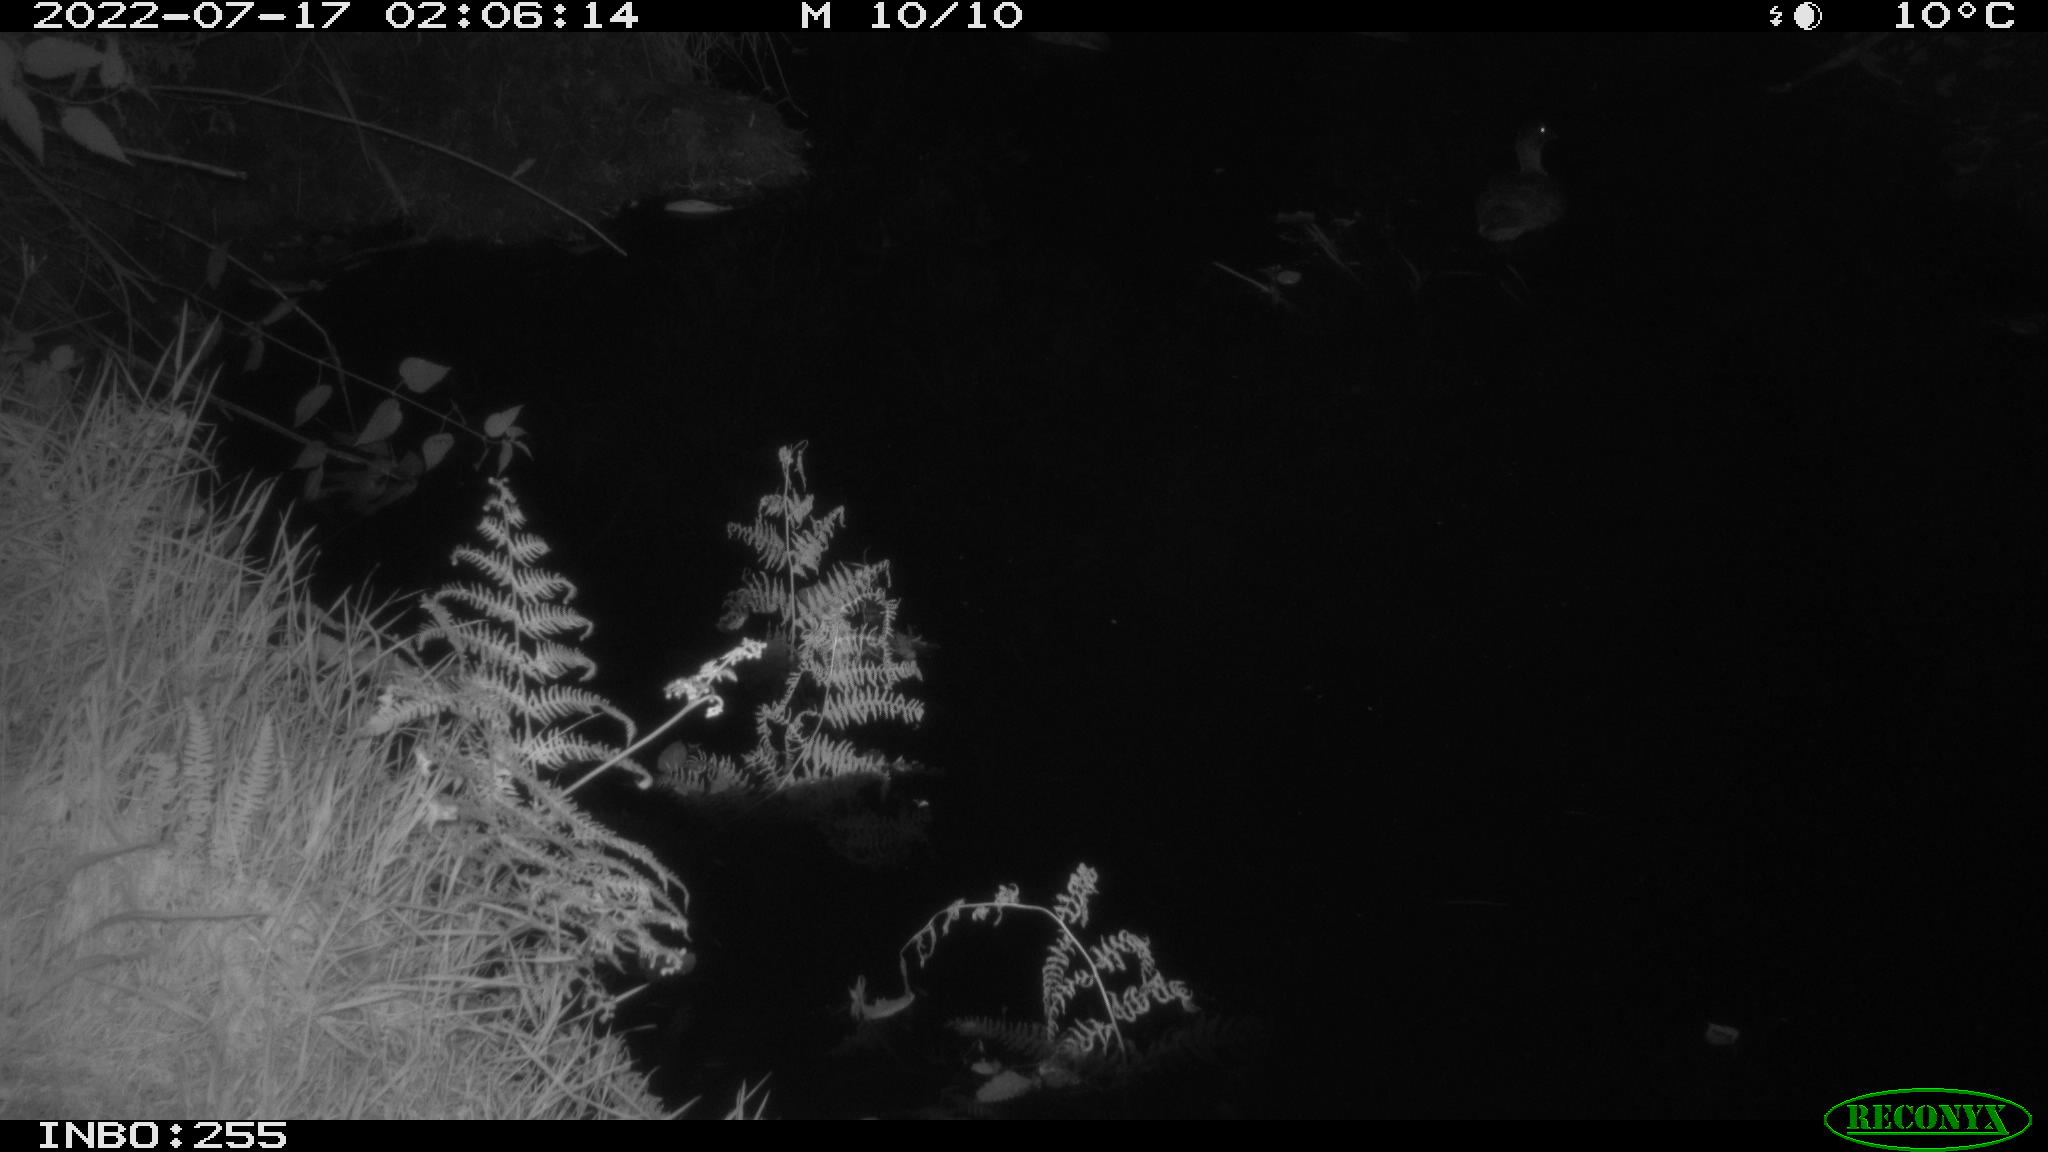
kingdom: Animalia
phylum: Chordata
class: Aves
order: Anseriformes
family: Anatidae
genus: Anas
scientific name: Anas platyrhynchos
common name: Mallard
